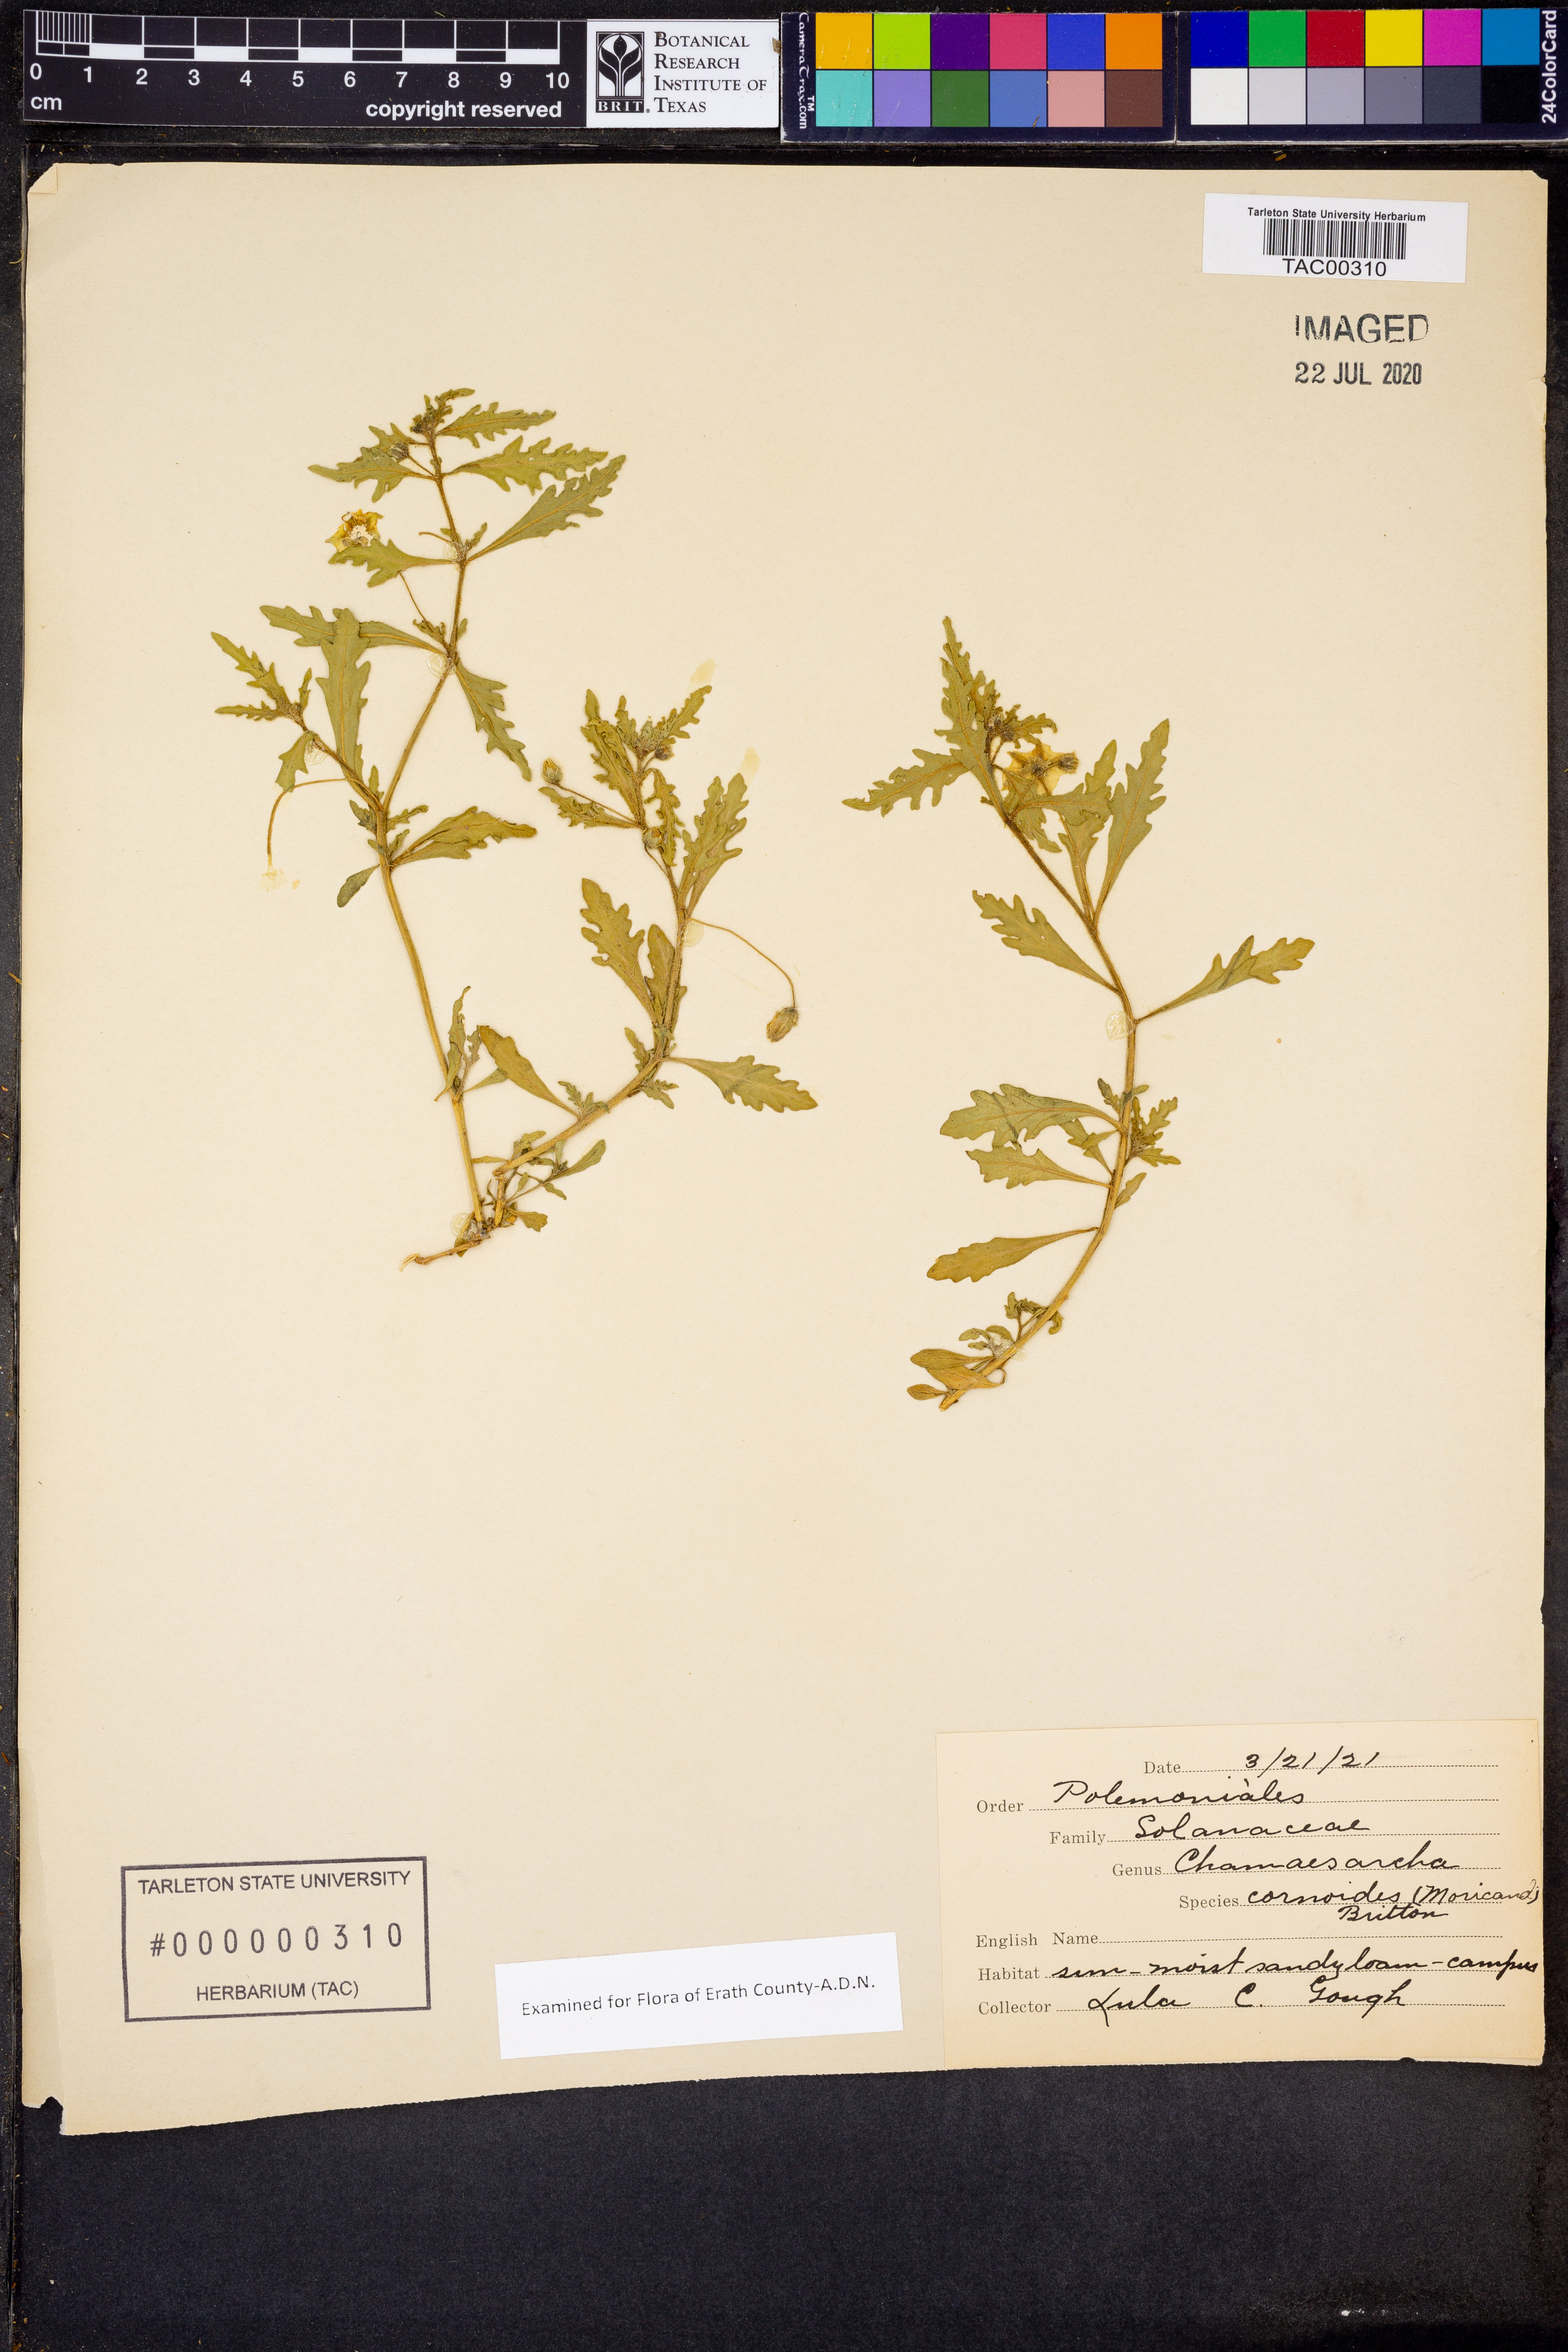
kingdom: Plantae
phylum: Tracheophyta
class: Magnoliopsida
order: Solanales
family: Solanaceae
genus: Chamaesaracha
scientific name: Chamaesaracha coniodes
